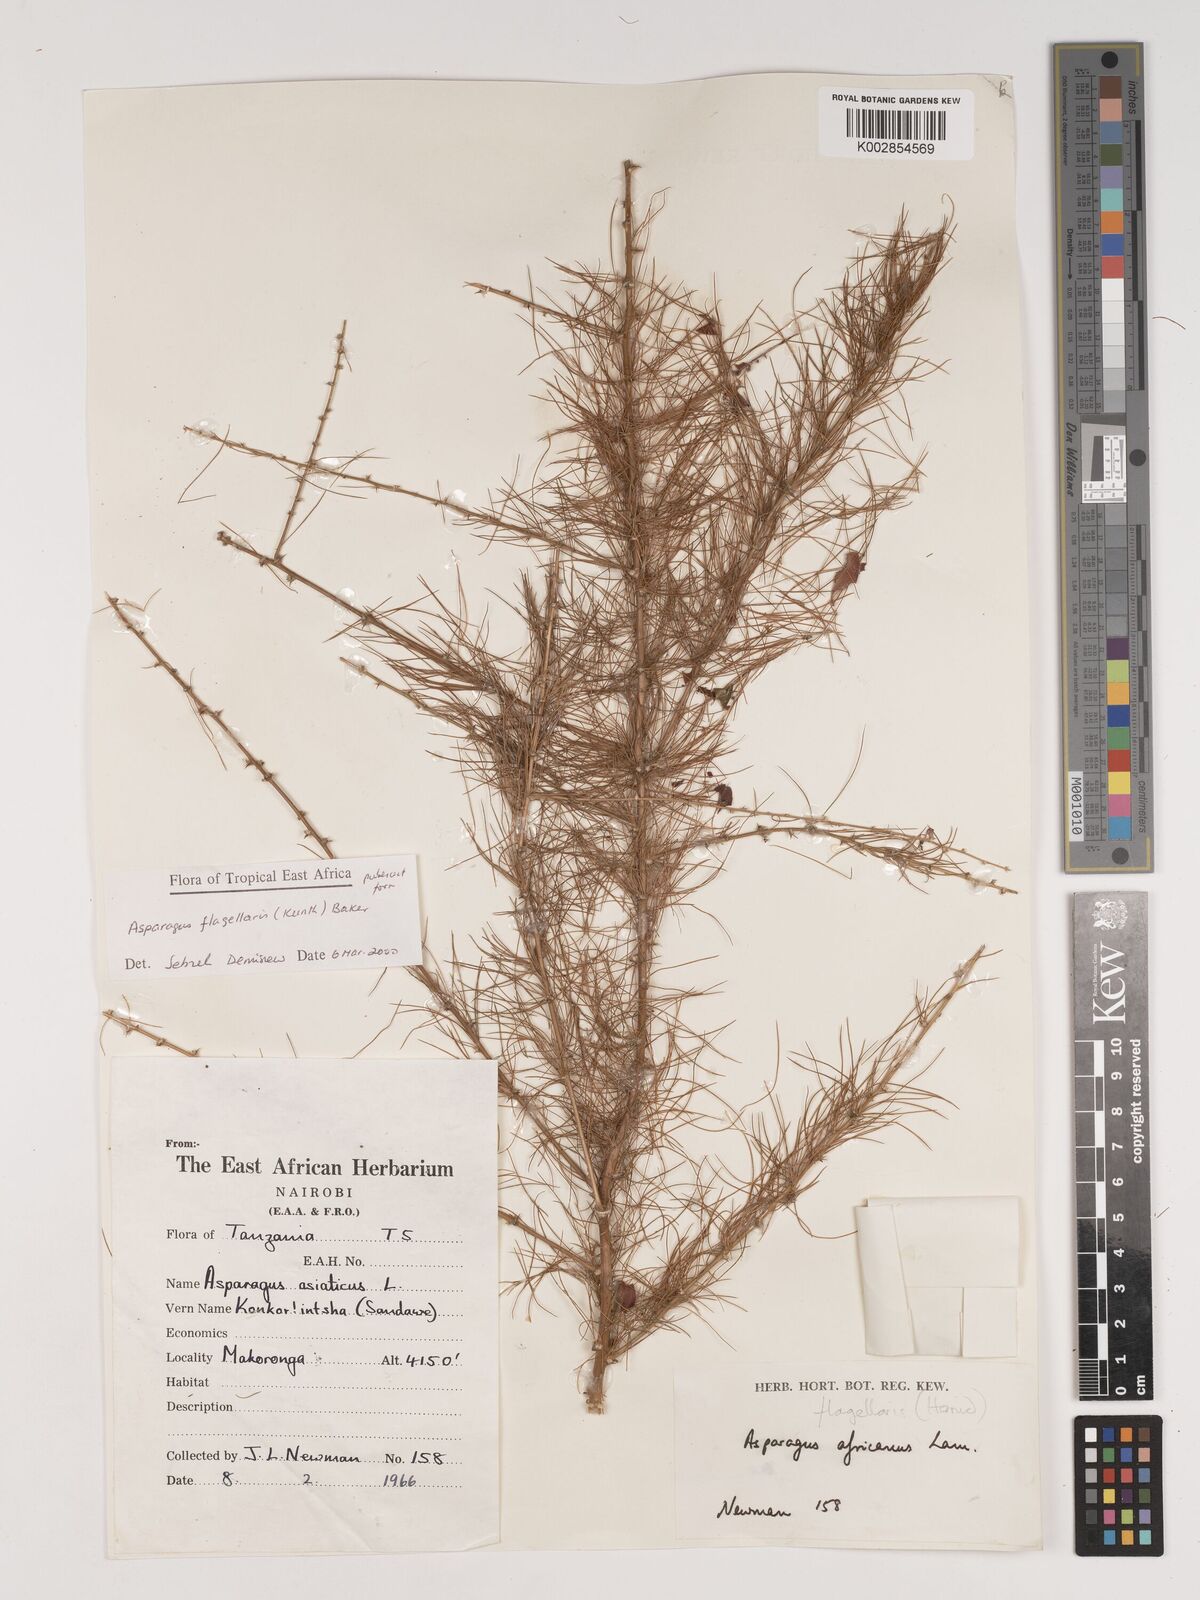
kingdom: Plantae
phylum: Tracheophyta
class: Liliopsida
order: Asparagales
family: Asparagaceae
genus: Asparagus
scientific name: Asparagus flagellaris
